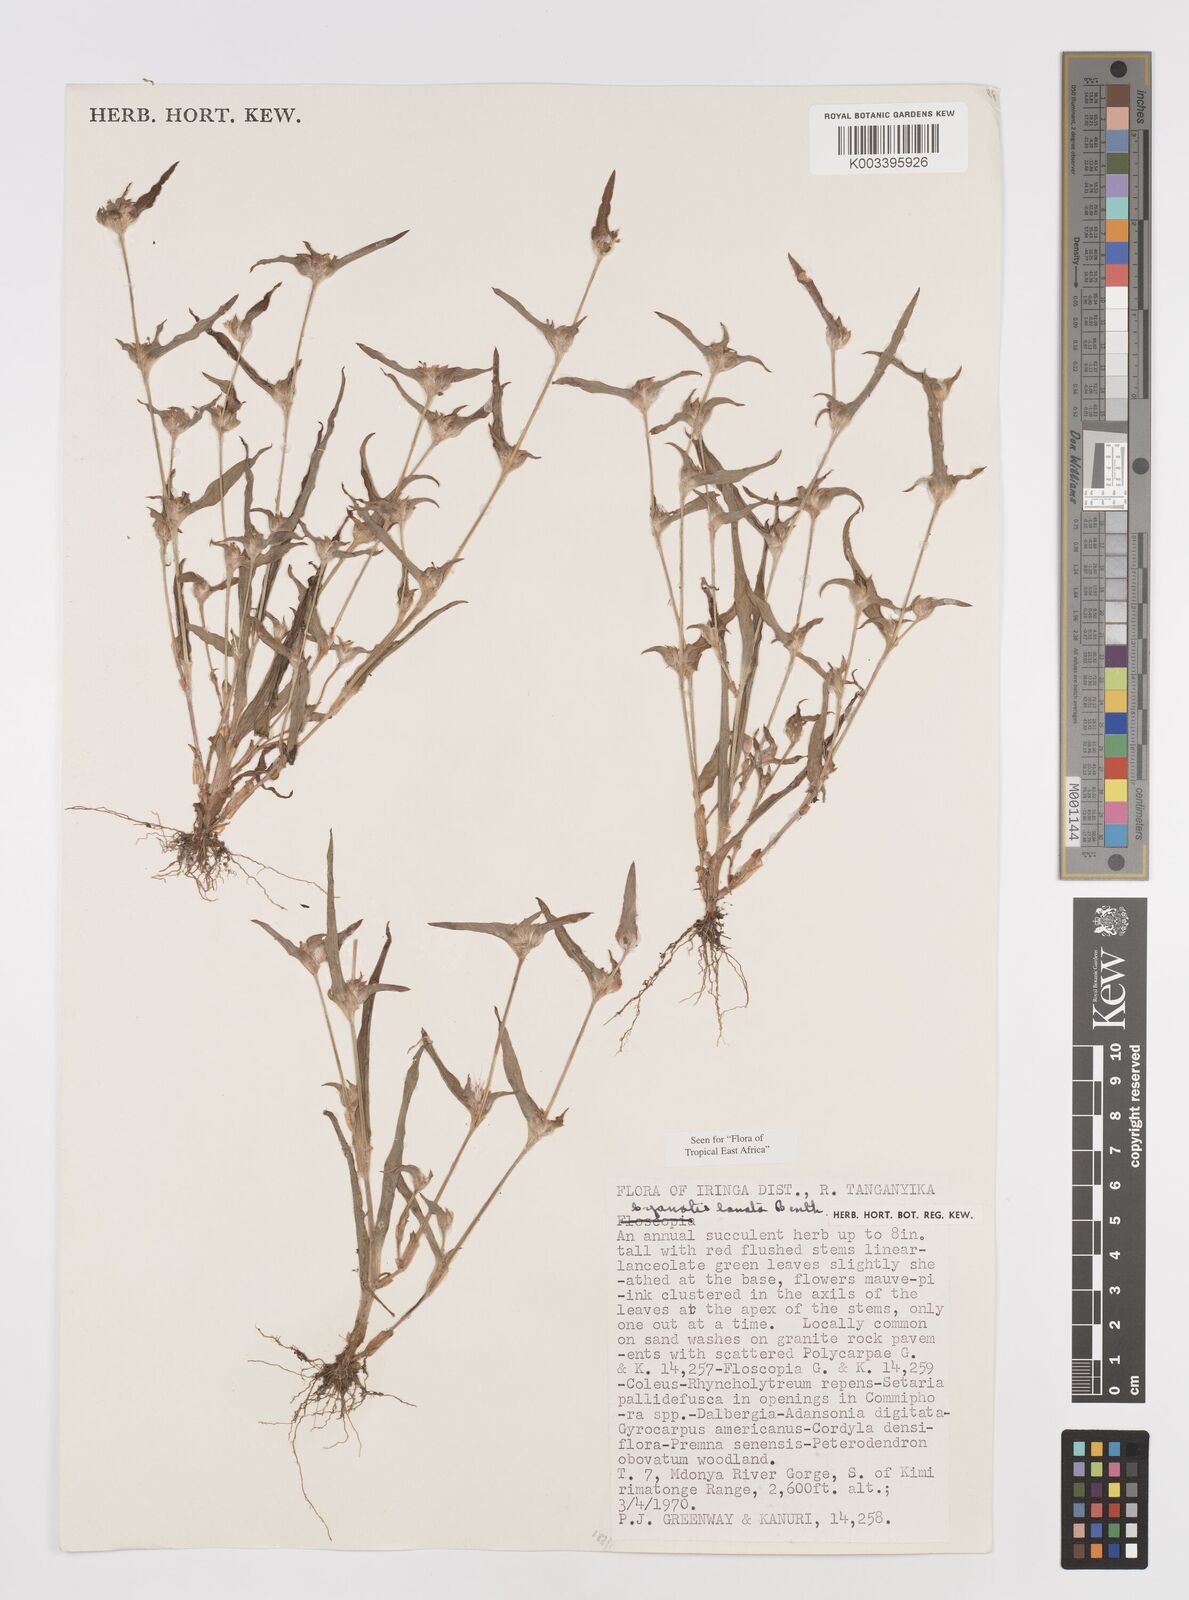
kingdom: Plantae
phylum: Tracheophyta
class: Liliopsida
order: Commelinales
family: Commelinaceae
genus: Cyanotis
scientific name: Cyanotis lanata
